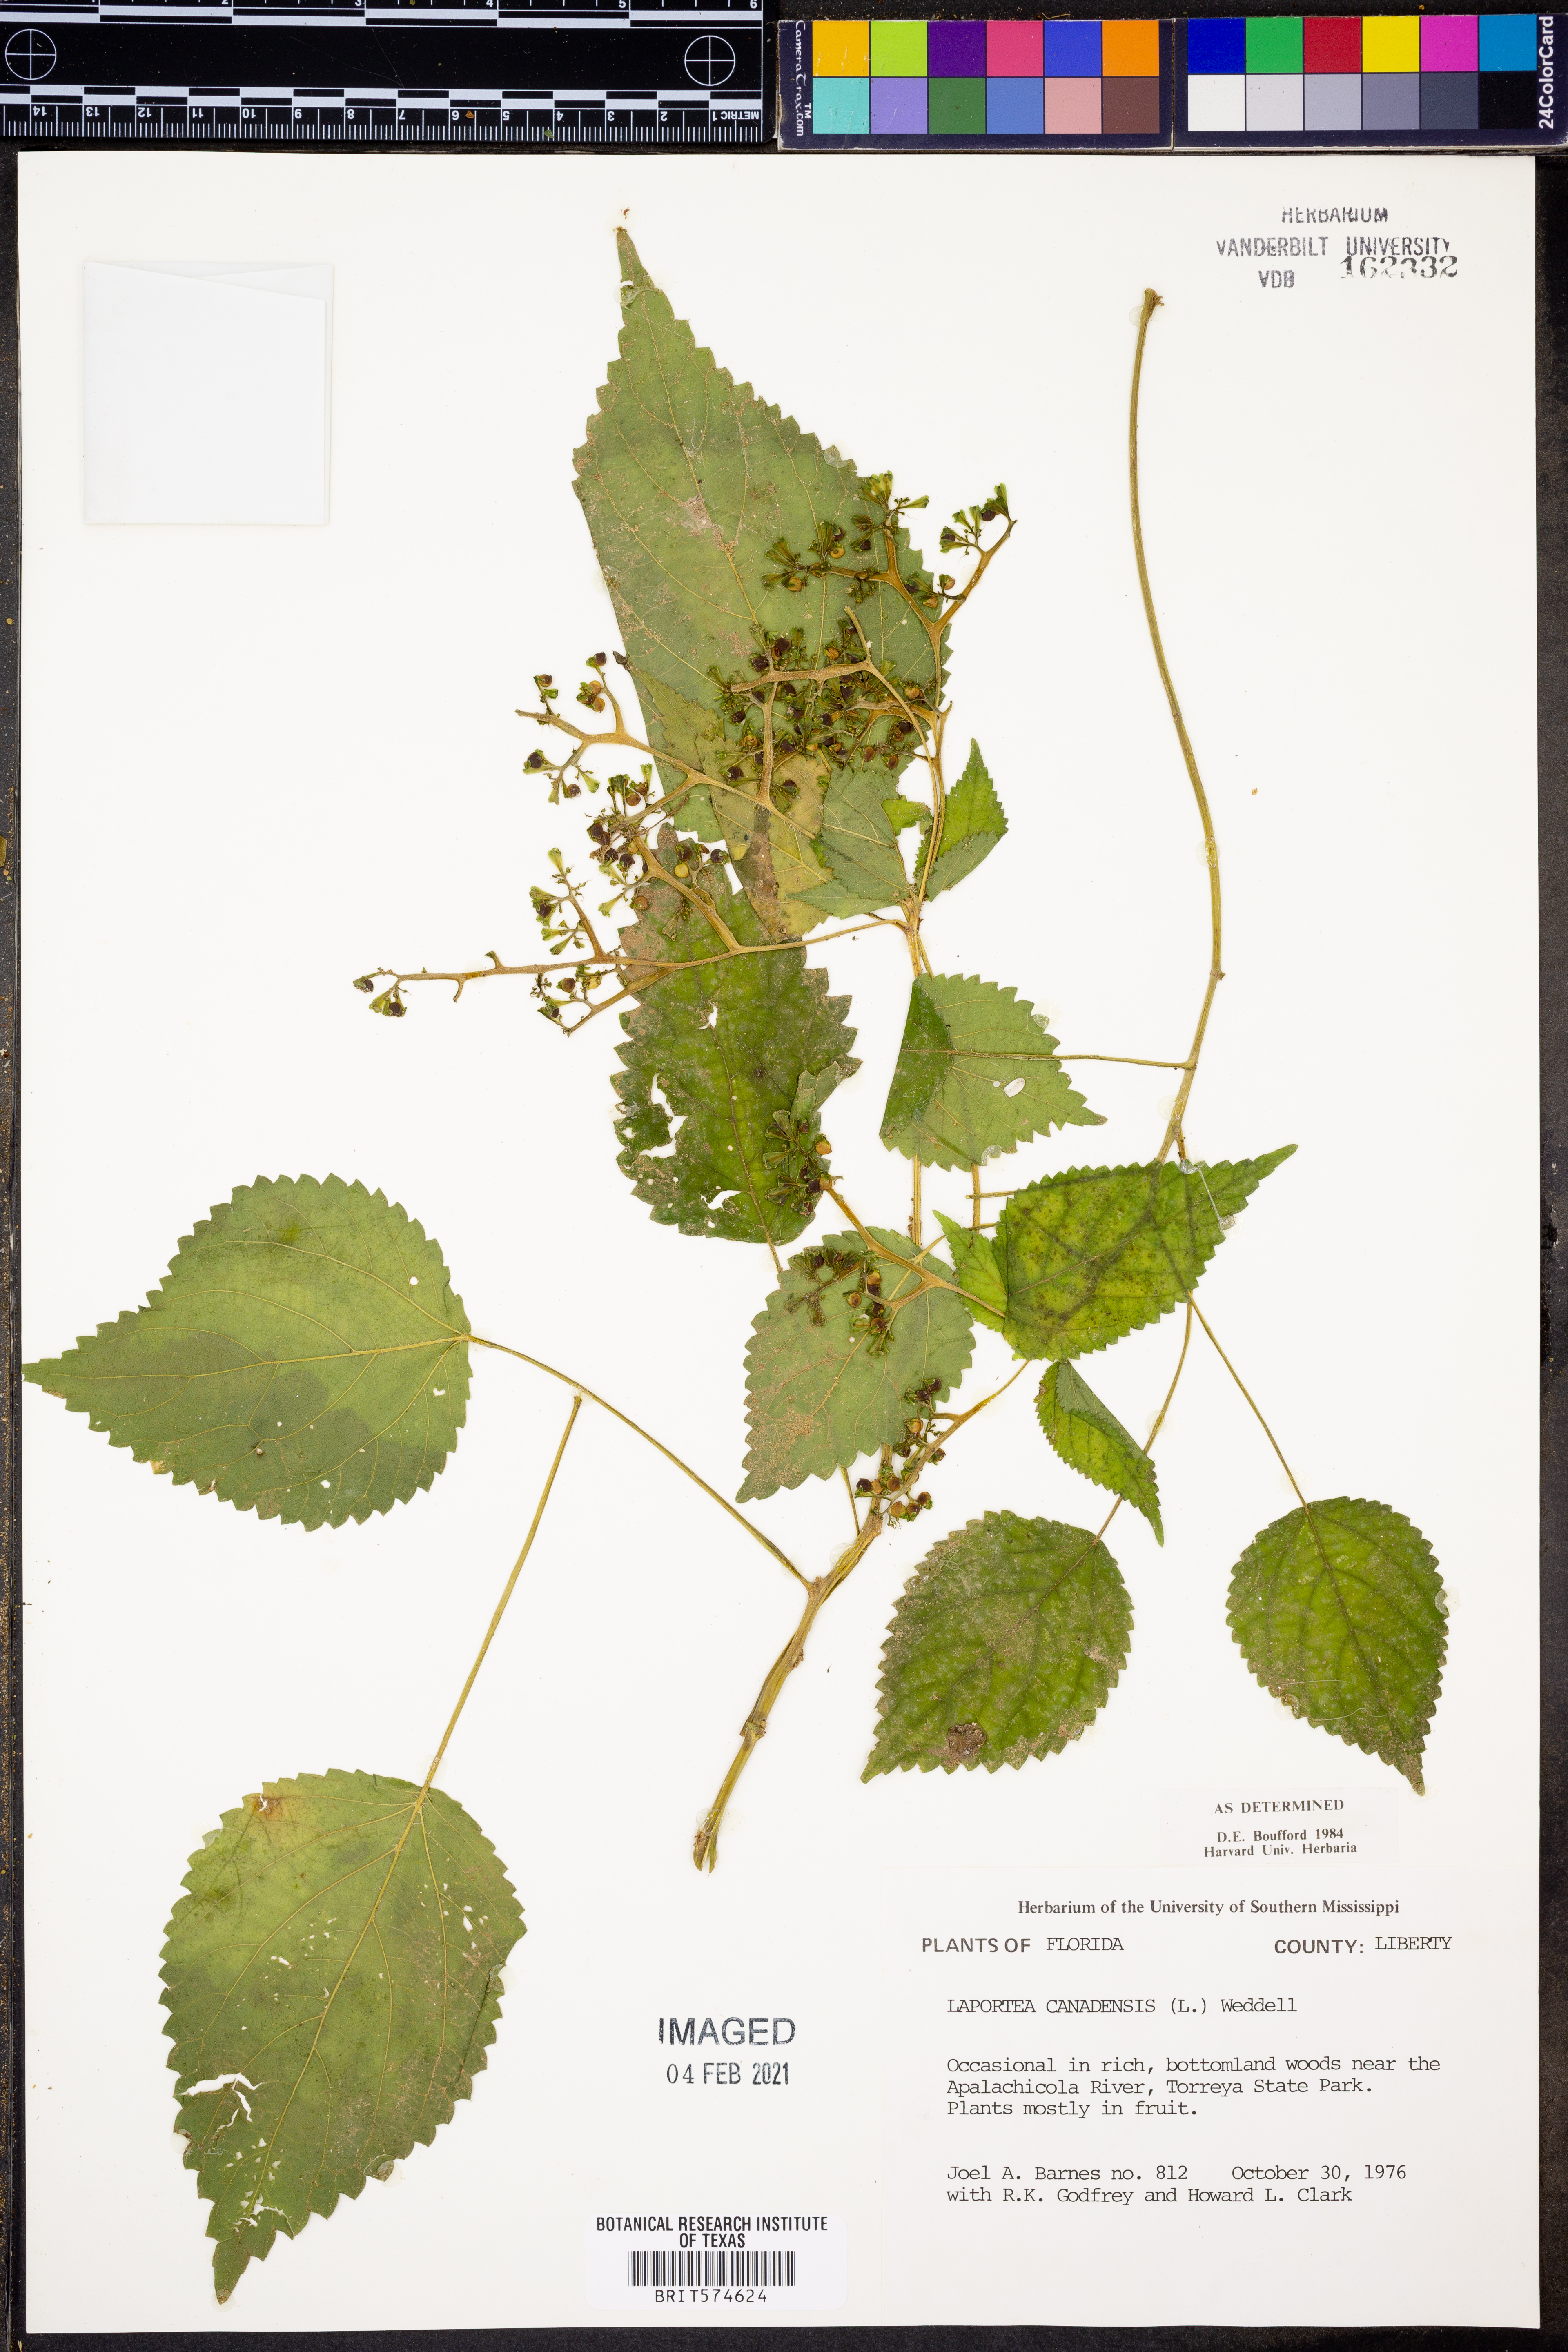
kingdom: Plantae
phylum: Tracheophyta
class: Magnoliopsida
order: Rosales
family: Urticaceae
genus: Laportea
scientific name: Laportea canadensis
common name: Canada nettle
